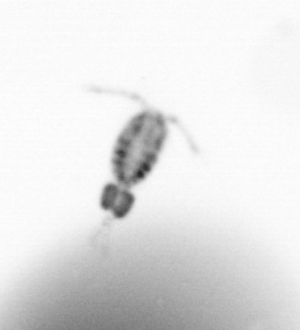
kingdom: Animalia
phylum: Arthropoda
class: Copepoda
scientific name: Copepoda
